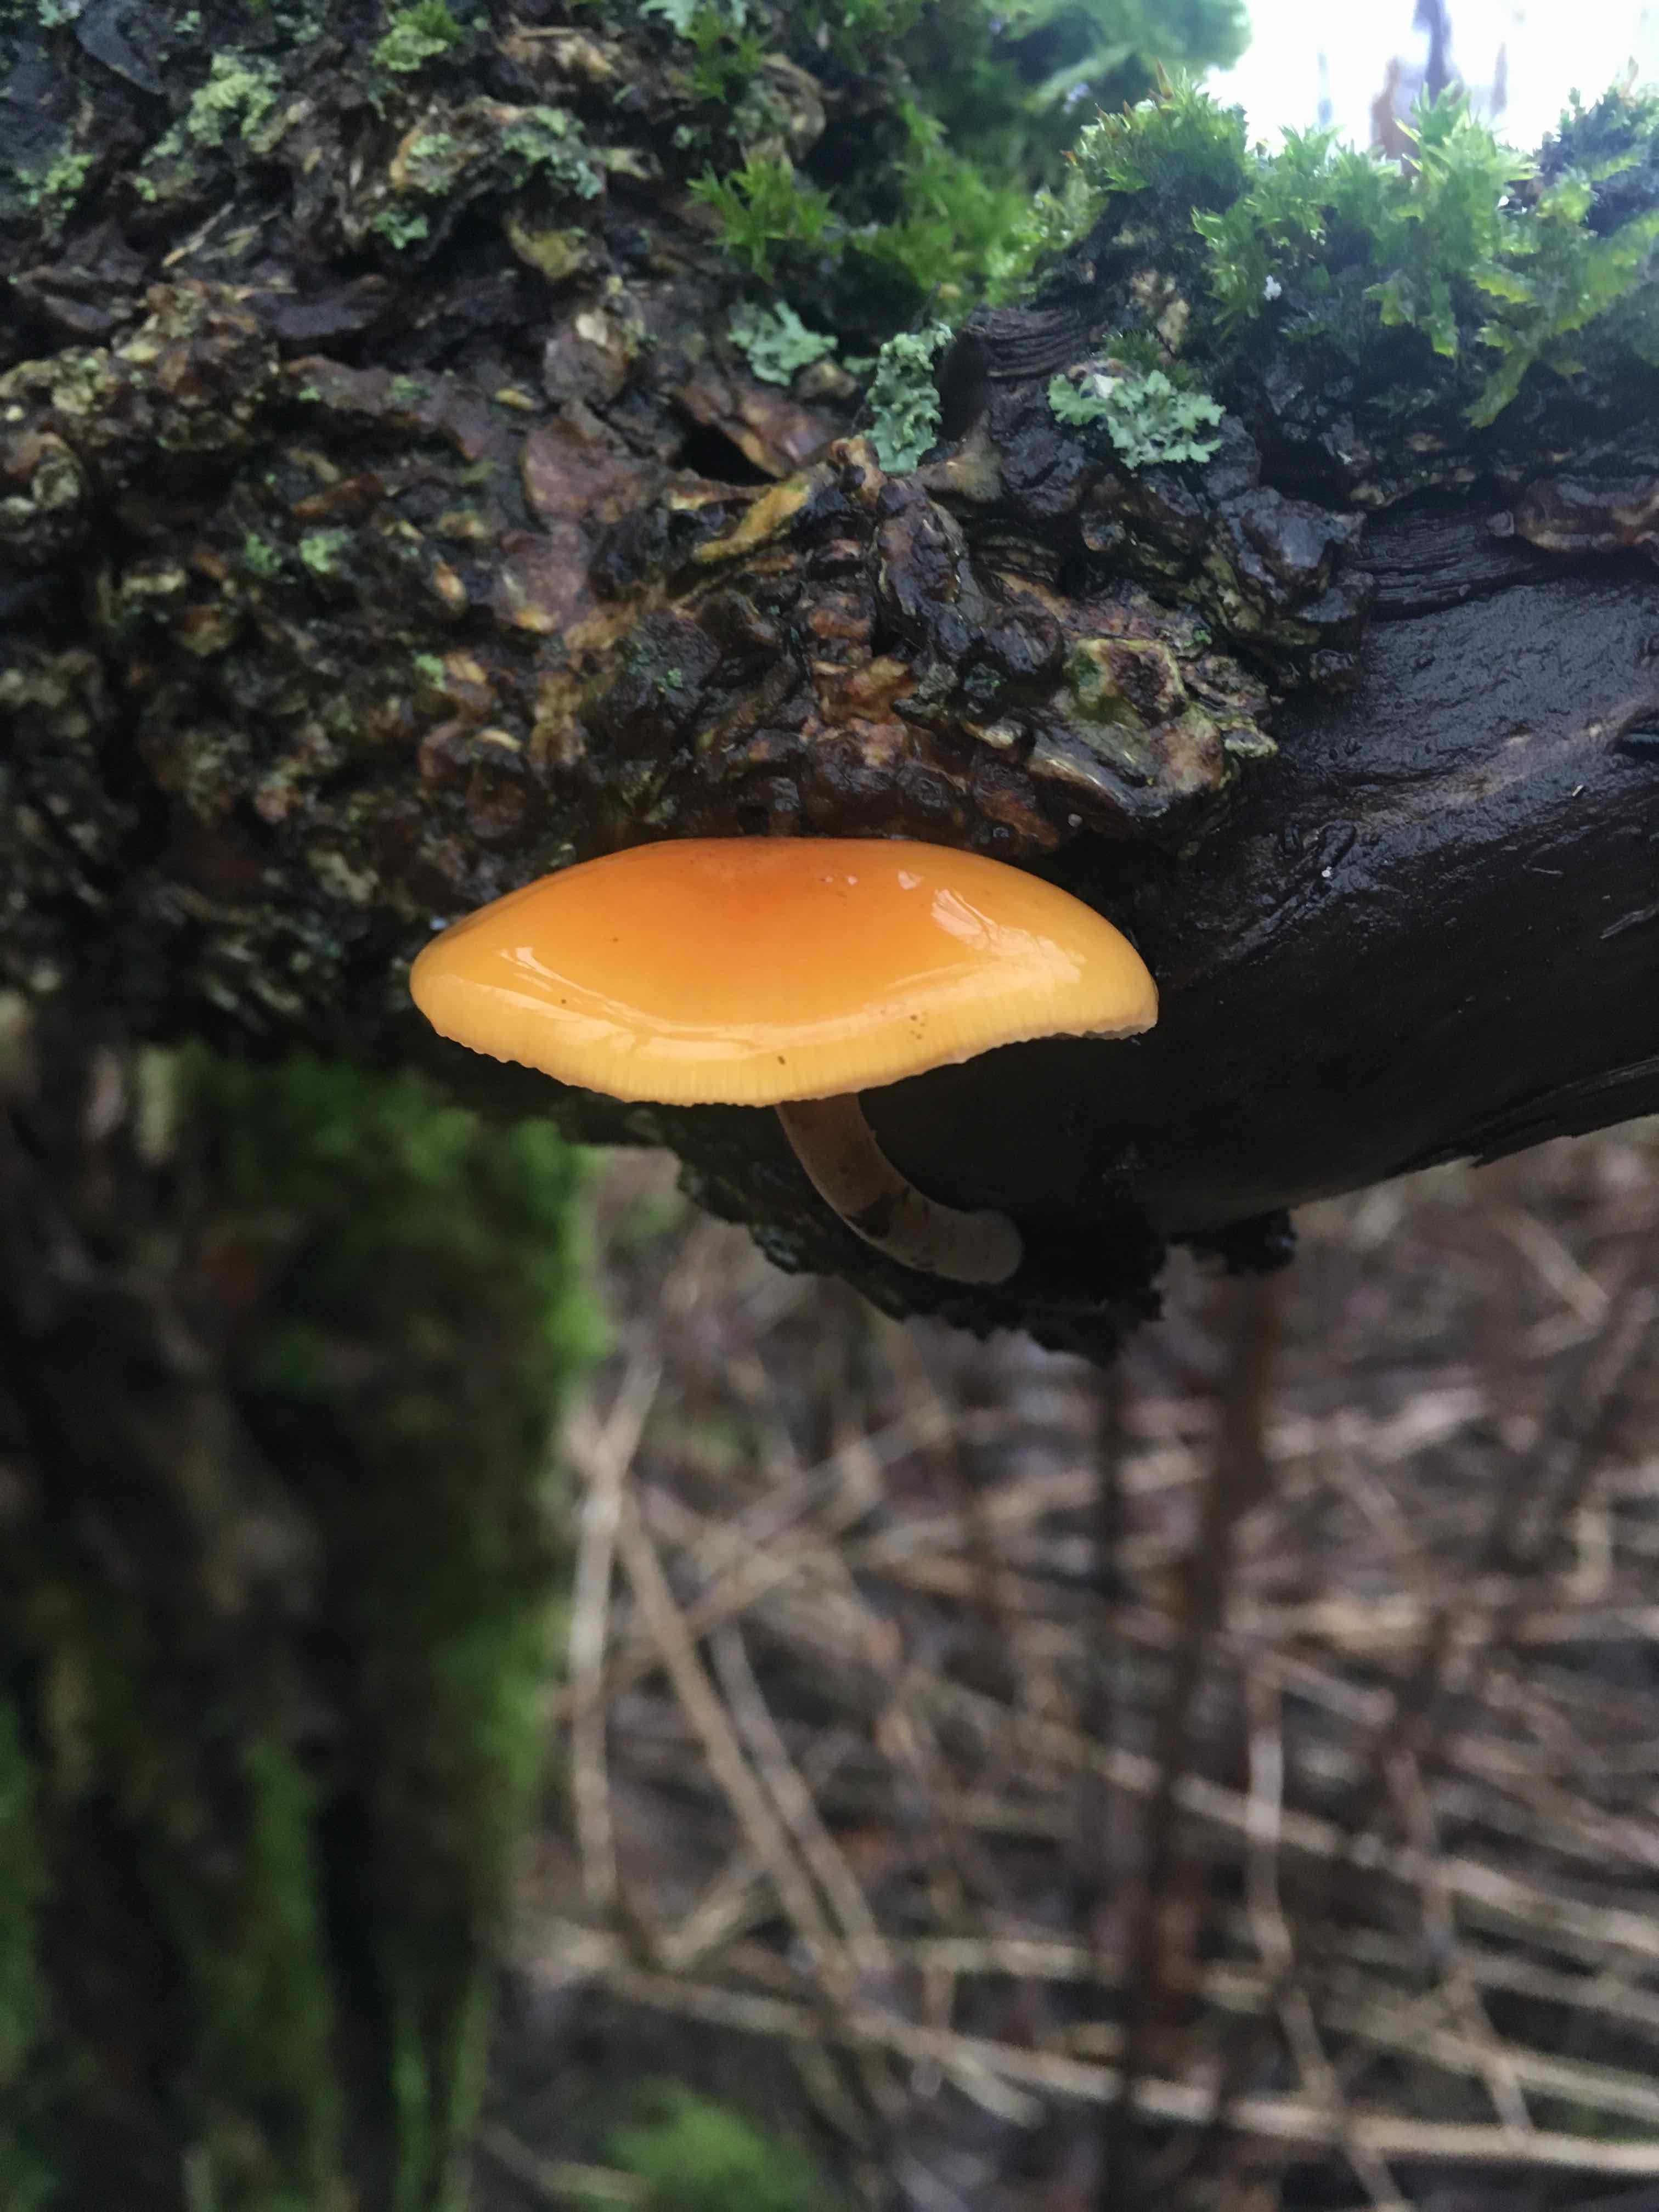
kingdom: Fungi
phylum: Basidiomycota
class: Agaricomycetes
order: Agaricales
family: Physalacriaceae
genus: Flammulina
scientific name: Flammulina velutipes
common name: gul fløjlsfod
